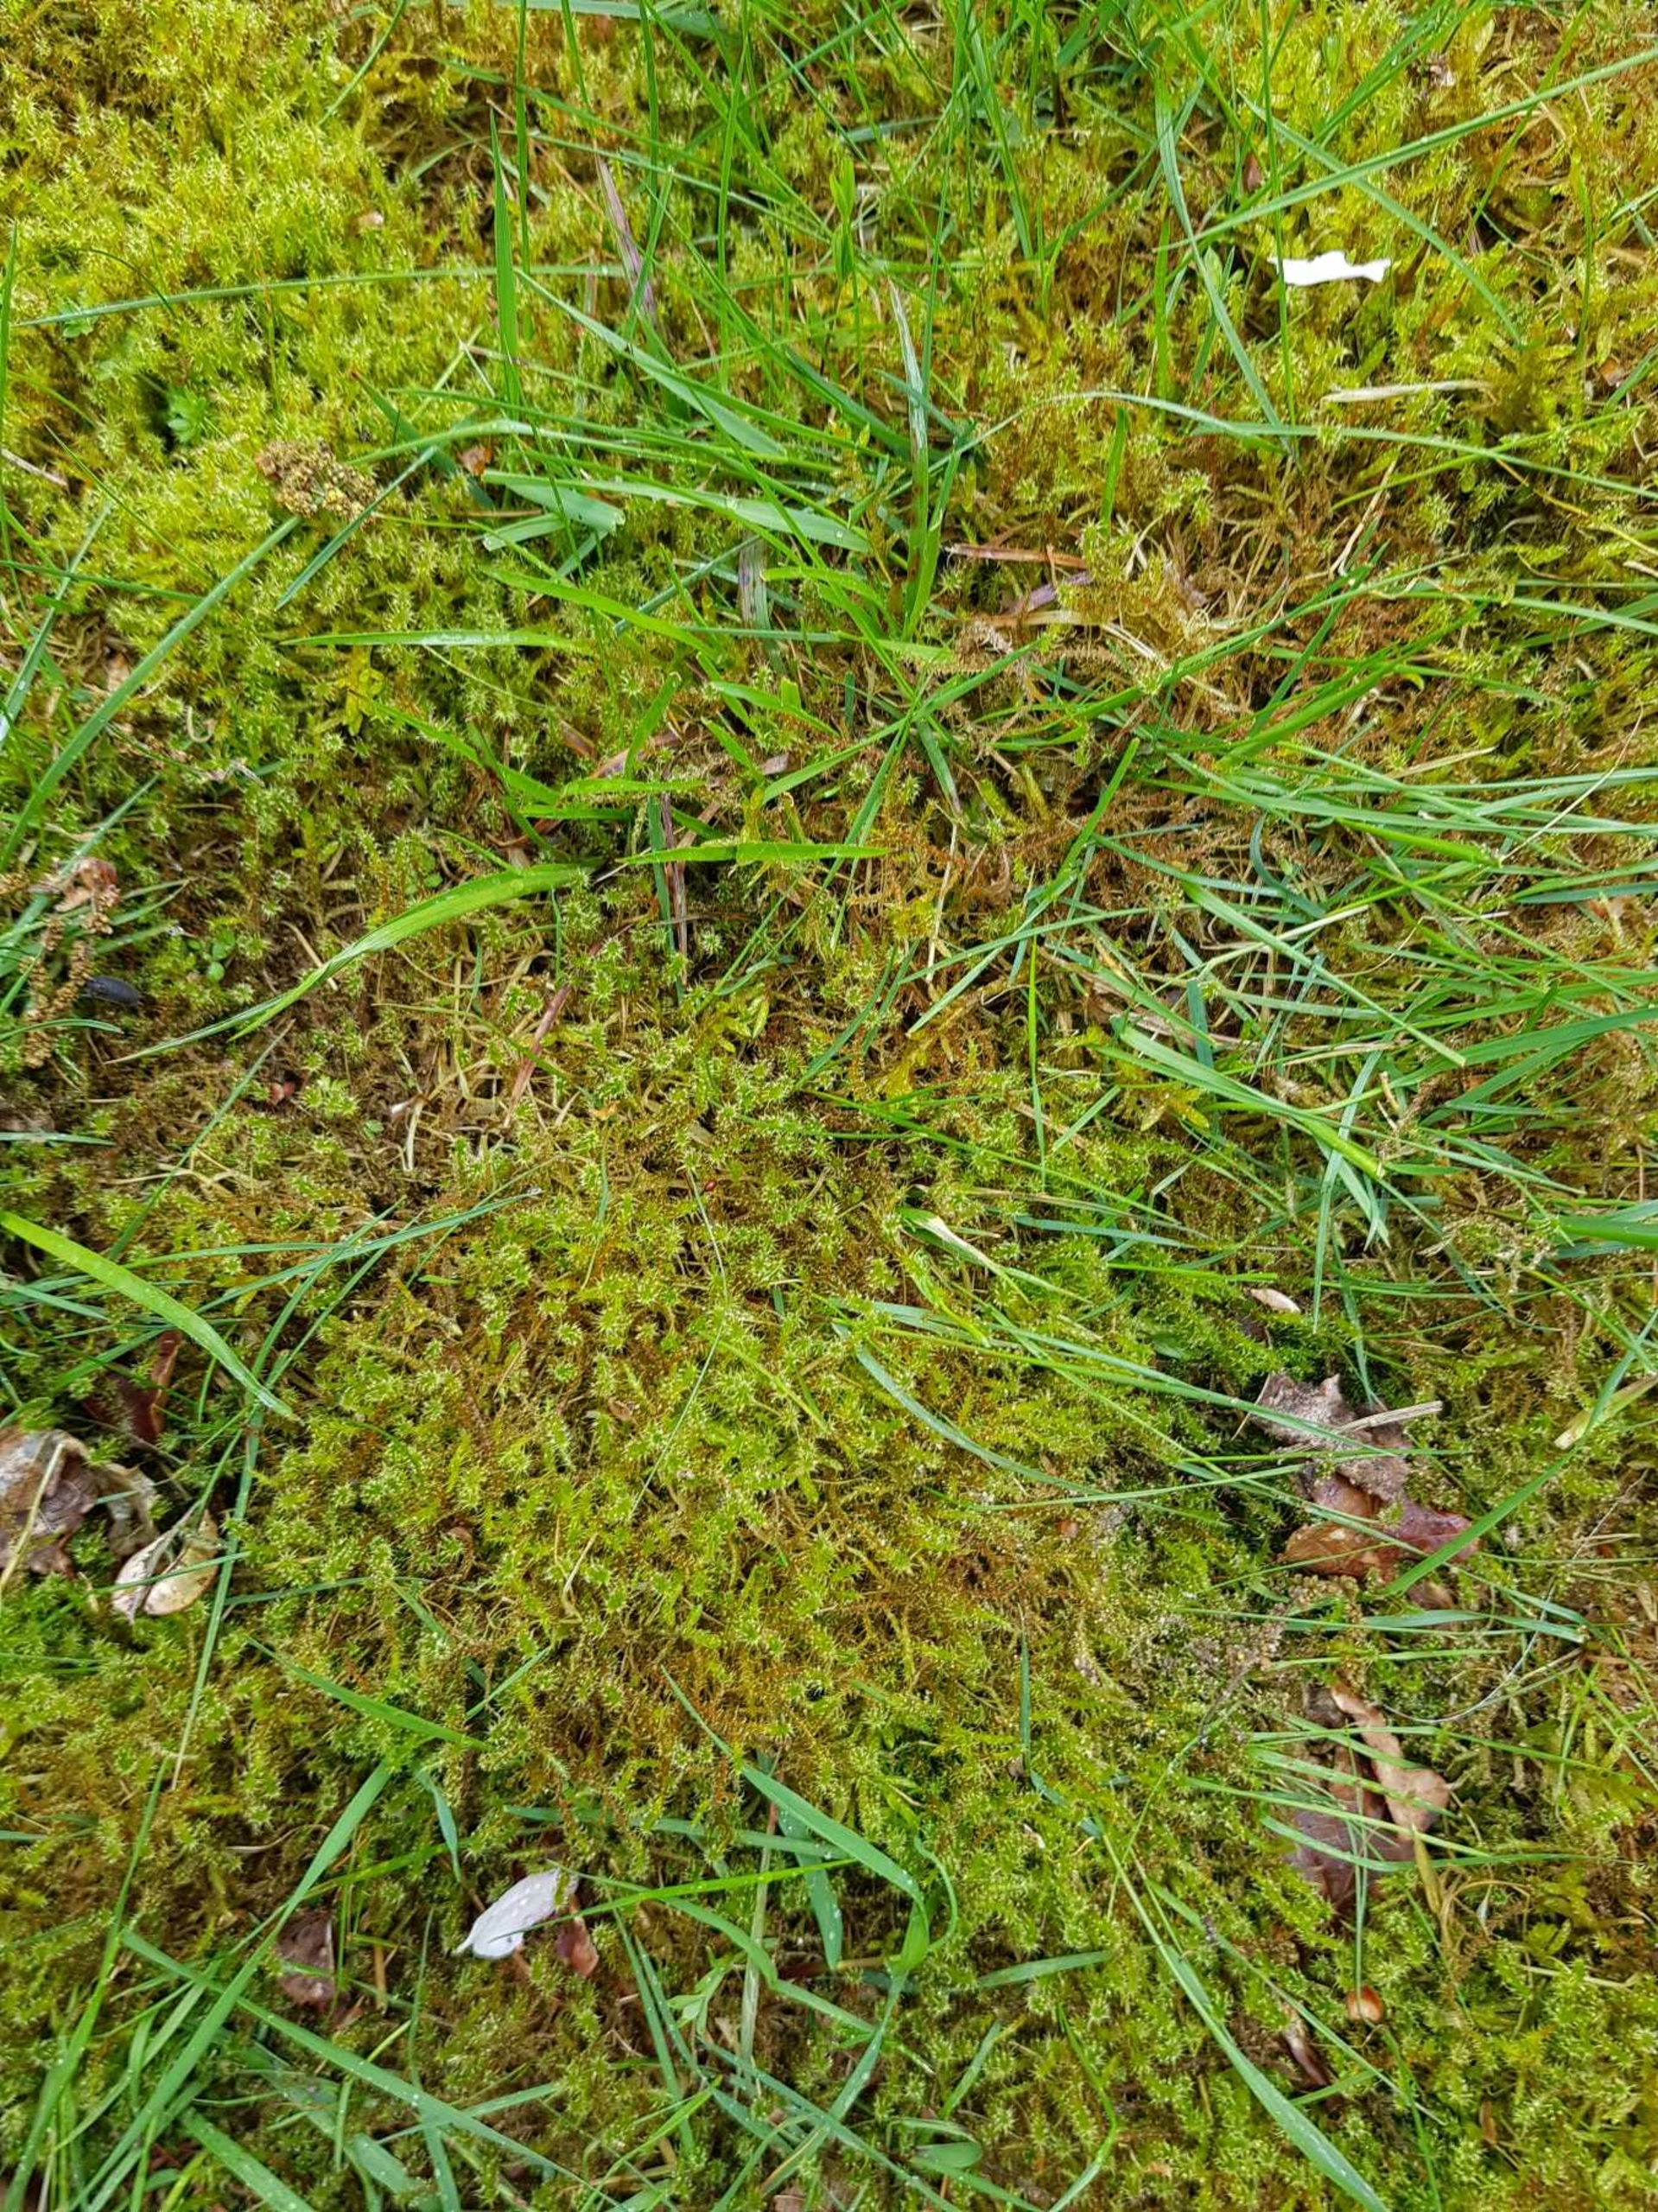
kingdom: Plantae
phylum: Bryophyta
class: Bryopsida
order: Hypnales
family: Hylocomiaceae
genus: Rhytidiadelphus
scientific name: Rhytidiadelphus squarrosus
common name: Plæne-kransemos
